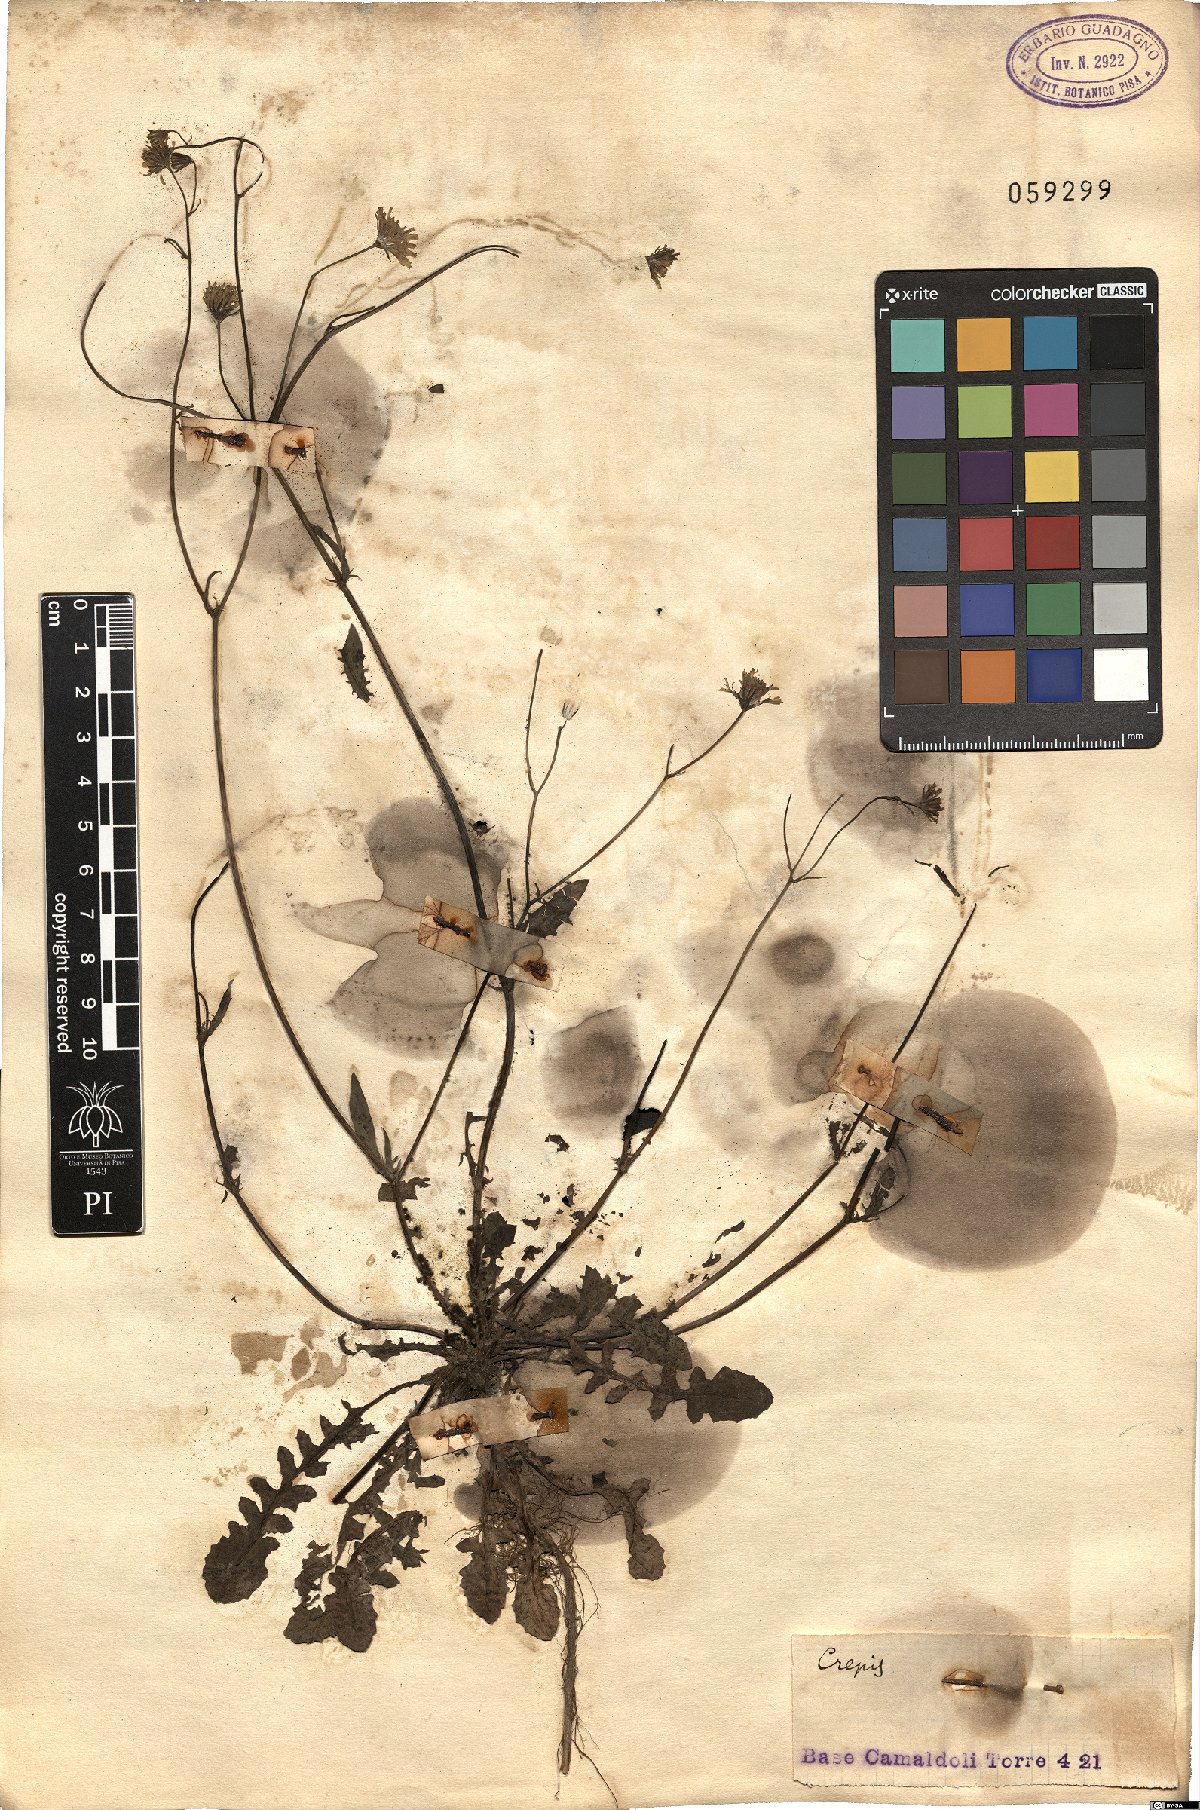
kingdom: Plantae
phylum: Tracheophyta
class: Magnoliopsida
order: Asterales
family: Asteraceae
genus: Crepis
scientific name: Crepis
